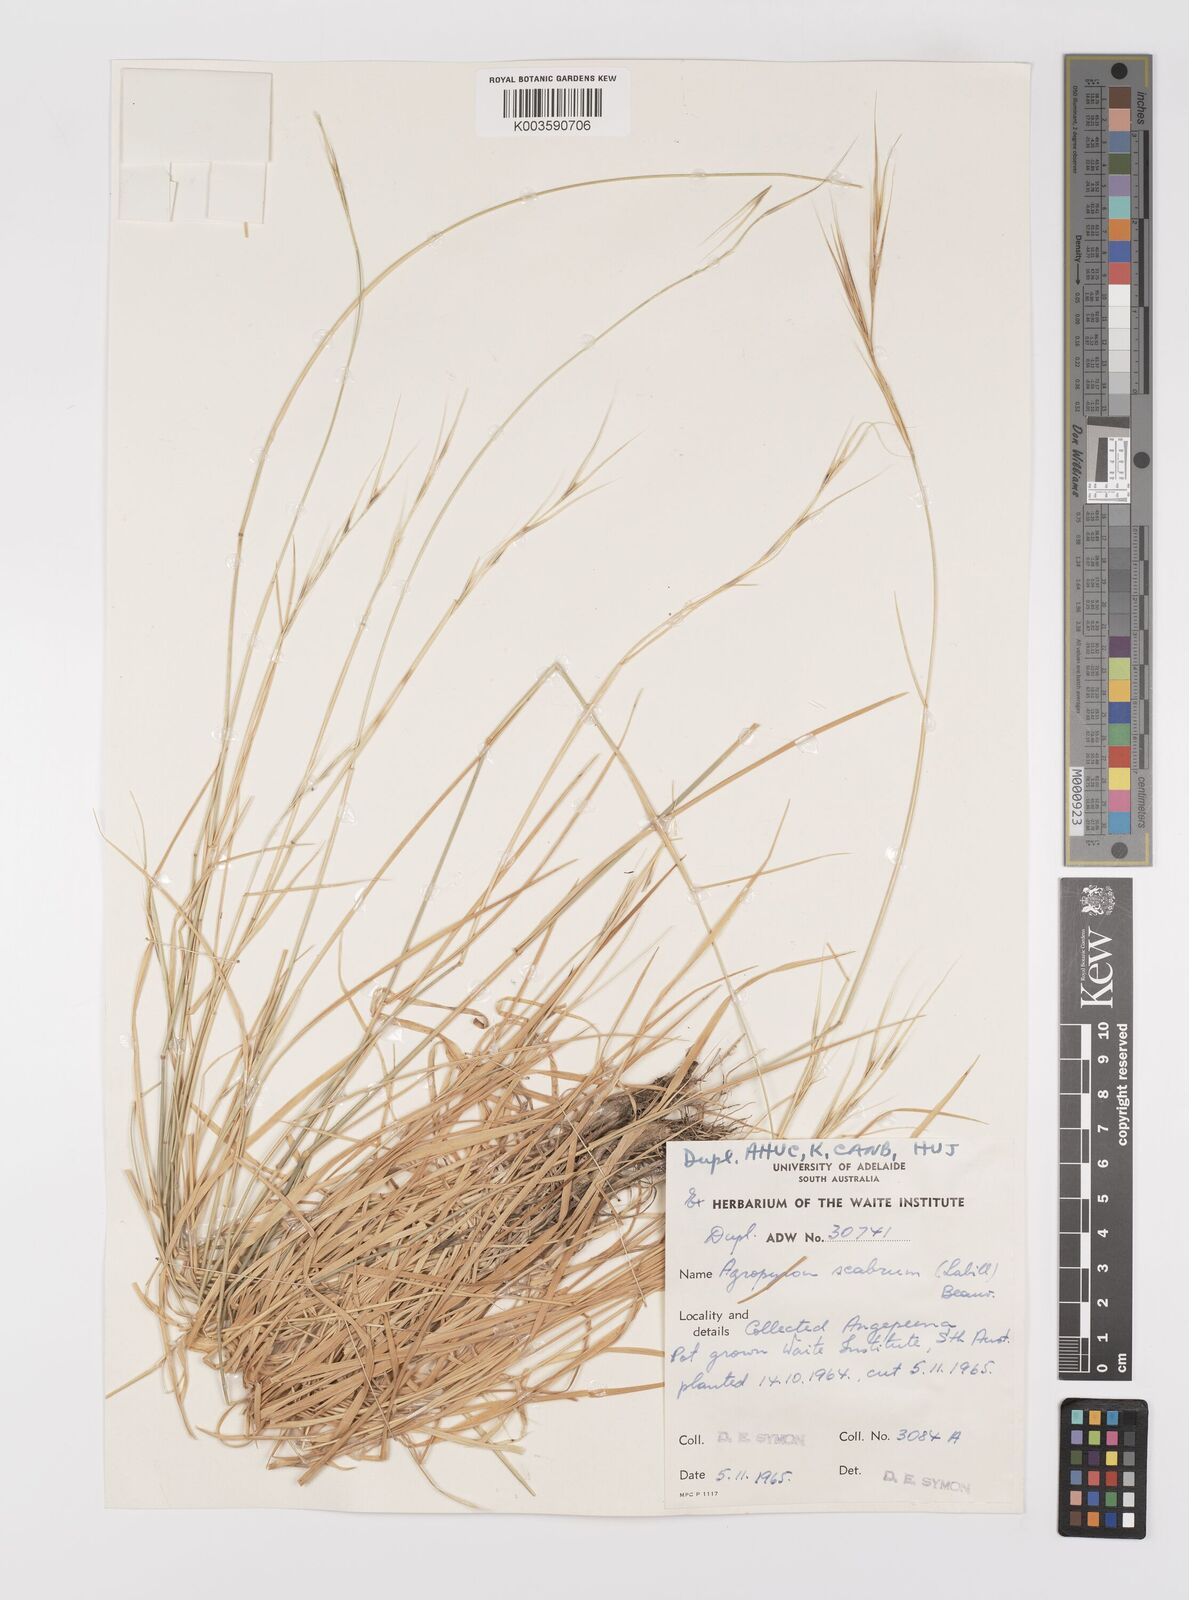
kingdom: Plantae
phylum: Tracheophyta
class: Liliopsida
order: Poales
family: Poaceae
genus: Elymus
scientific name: Elymus
